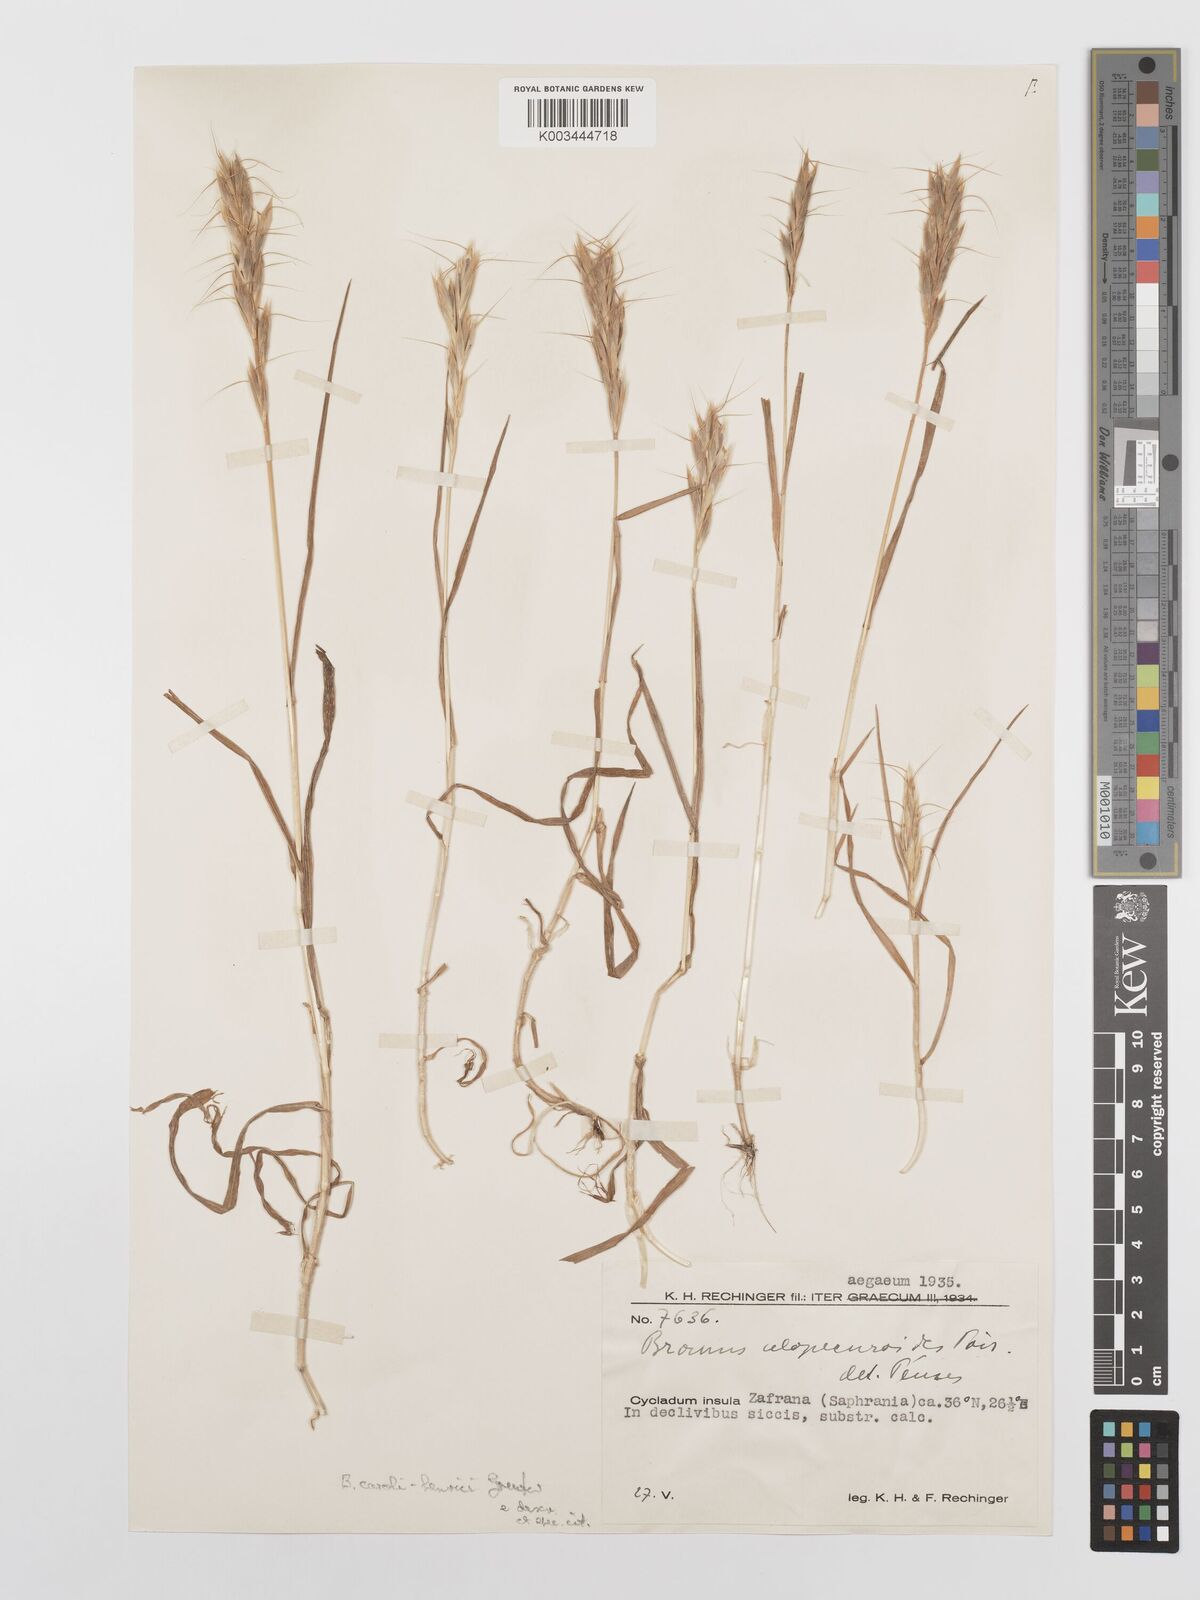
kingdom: Plantae
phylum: Tracheophyta
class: Liliopsida
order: Poales
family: Poaceae
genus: Bromus
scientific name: Bromus alopecuros
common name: Weedy brome
